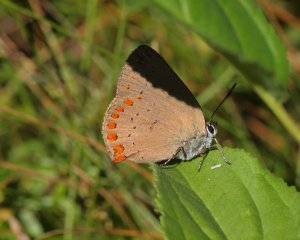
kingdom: Animalia
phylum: Arthropoda
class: Insecta
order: Lepidoptera
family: Lycaenidae
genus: Harkenclenus
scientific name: Harkenclenus titus
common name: Coral Hairstreak
